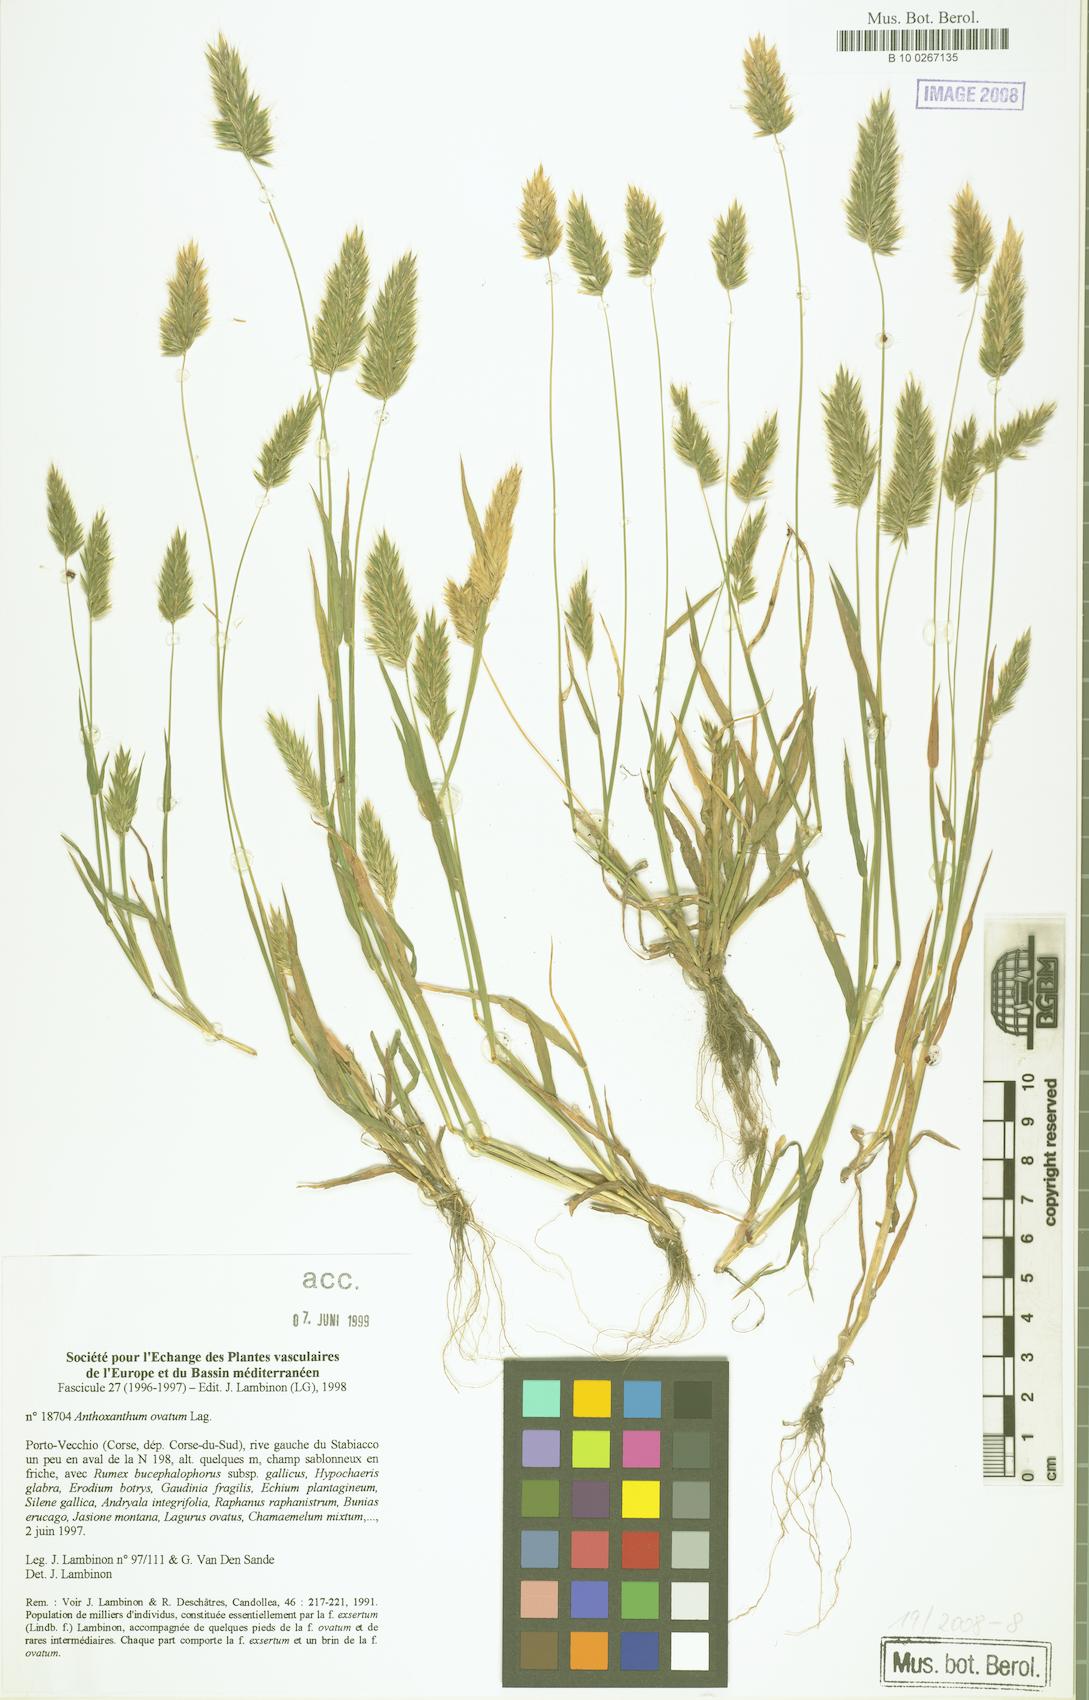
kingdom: Plantae
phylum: Tracheophyta
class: Liliopsida
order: Poales
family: Poaceae
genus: Anthoxanthum
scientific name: Anthoxanthum ovatum
